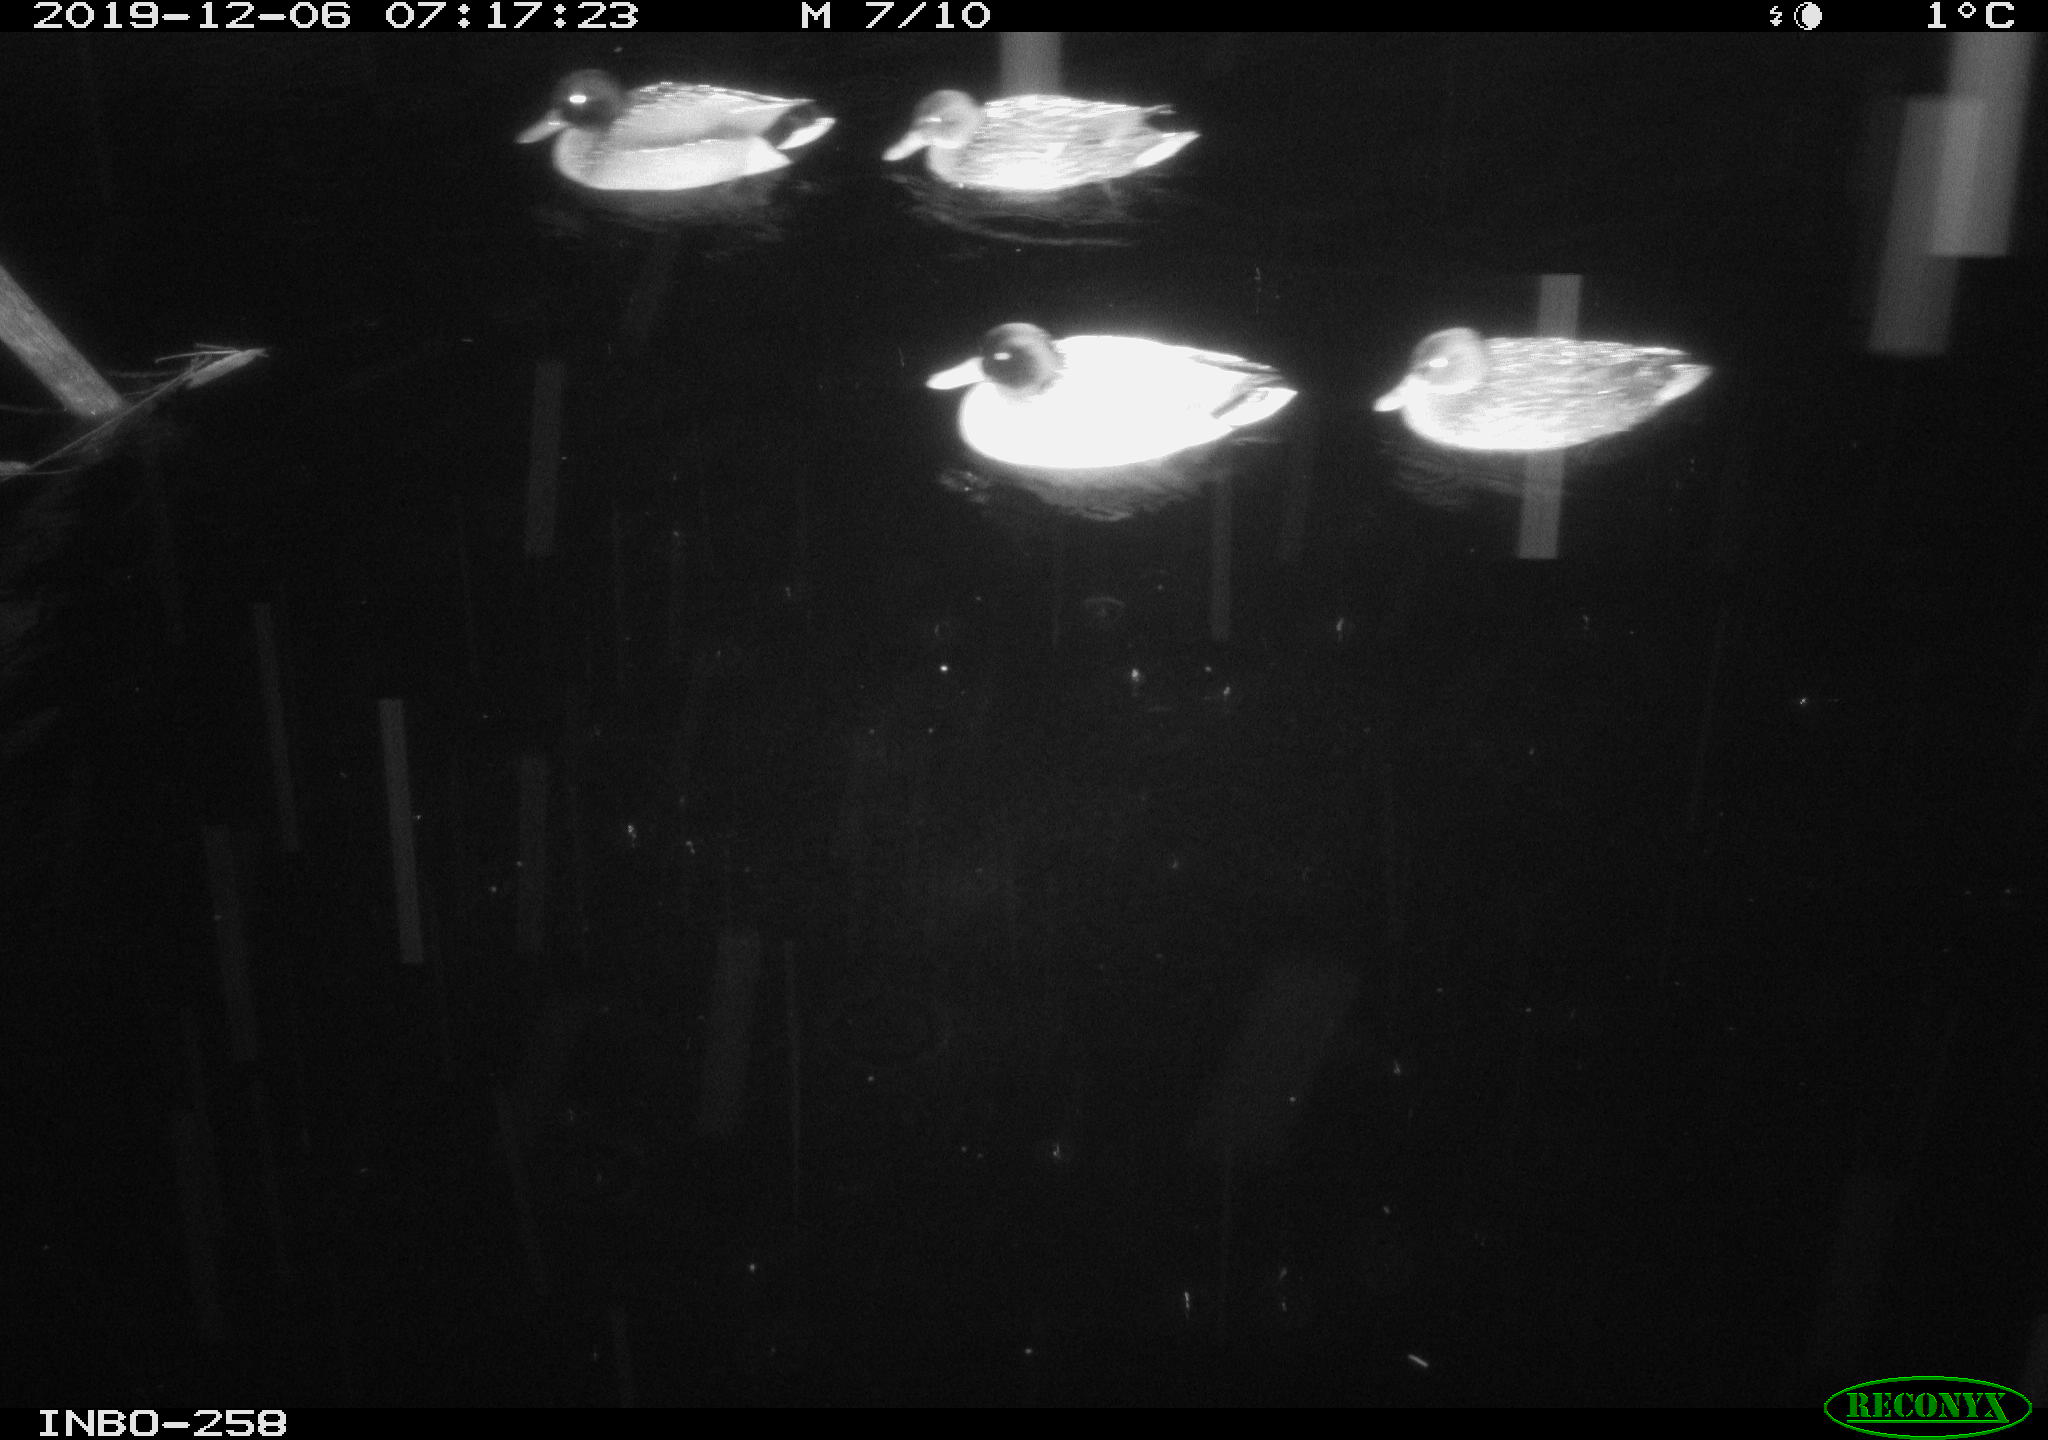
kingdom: Animalia
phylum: Chordata
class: Aves
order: Anseriformes
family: Anatidae
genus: Anas
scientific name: Anas platyrhynchos
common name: Mallard
